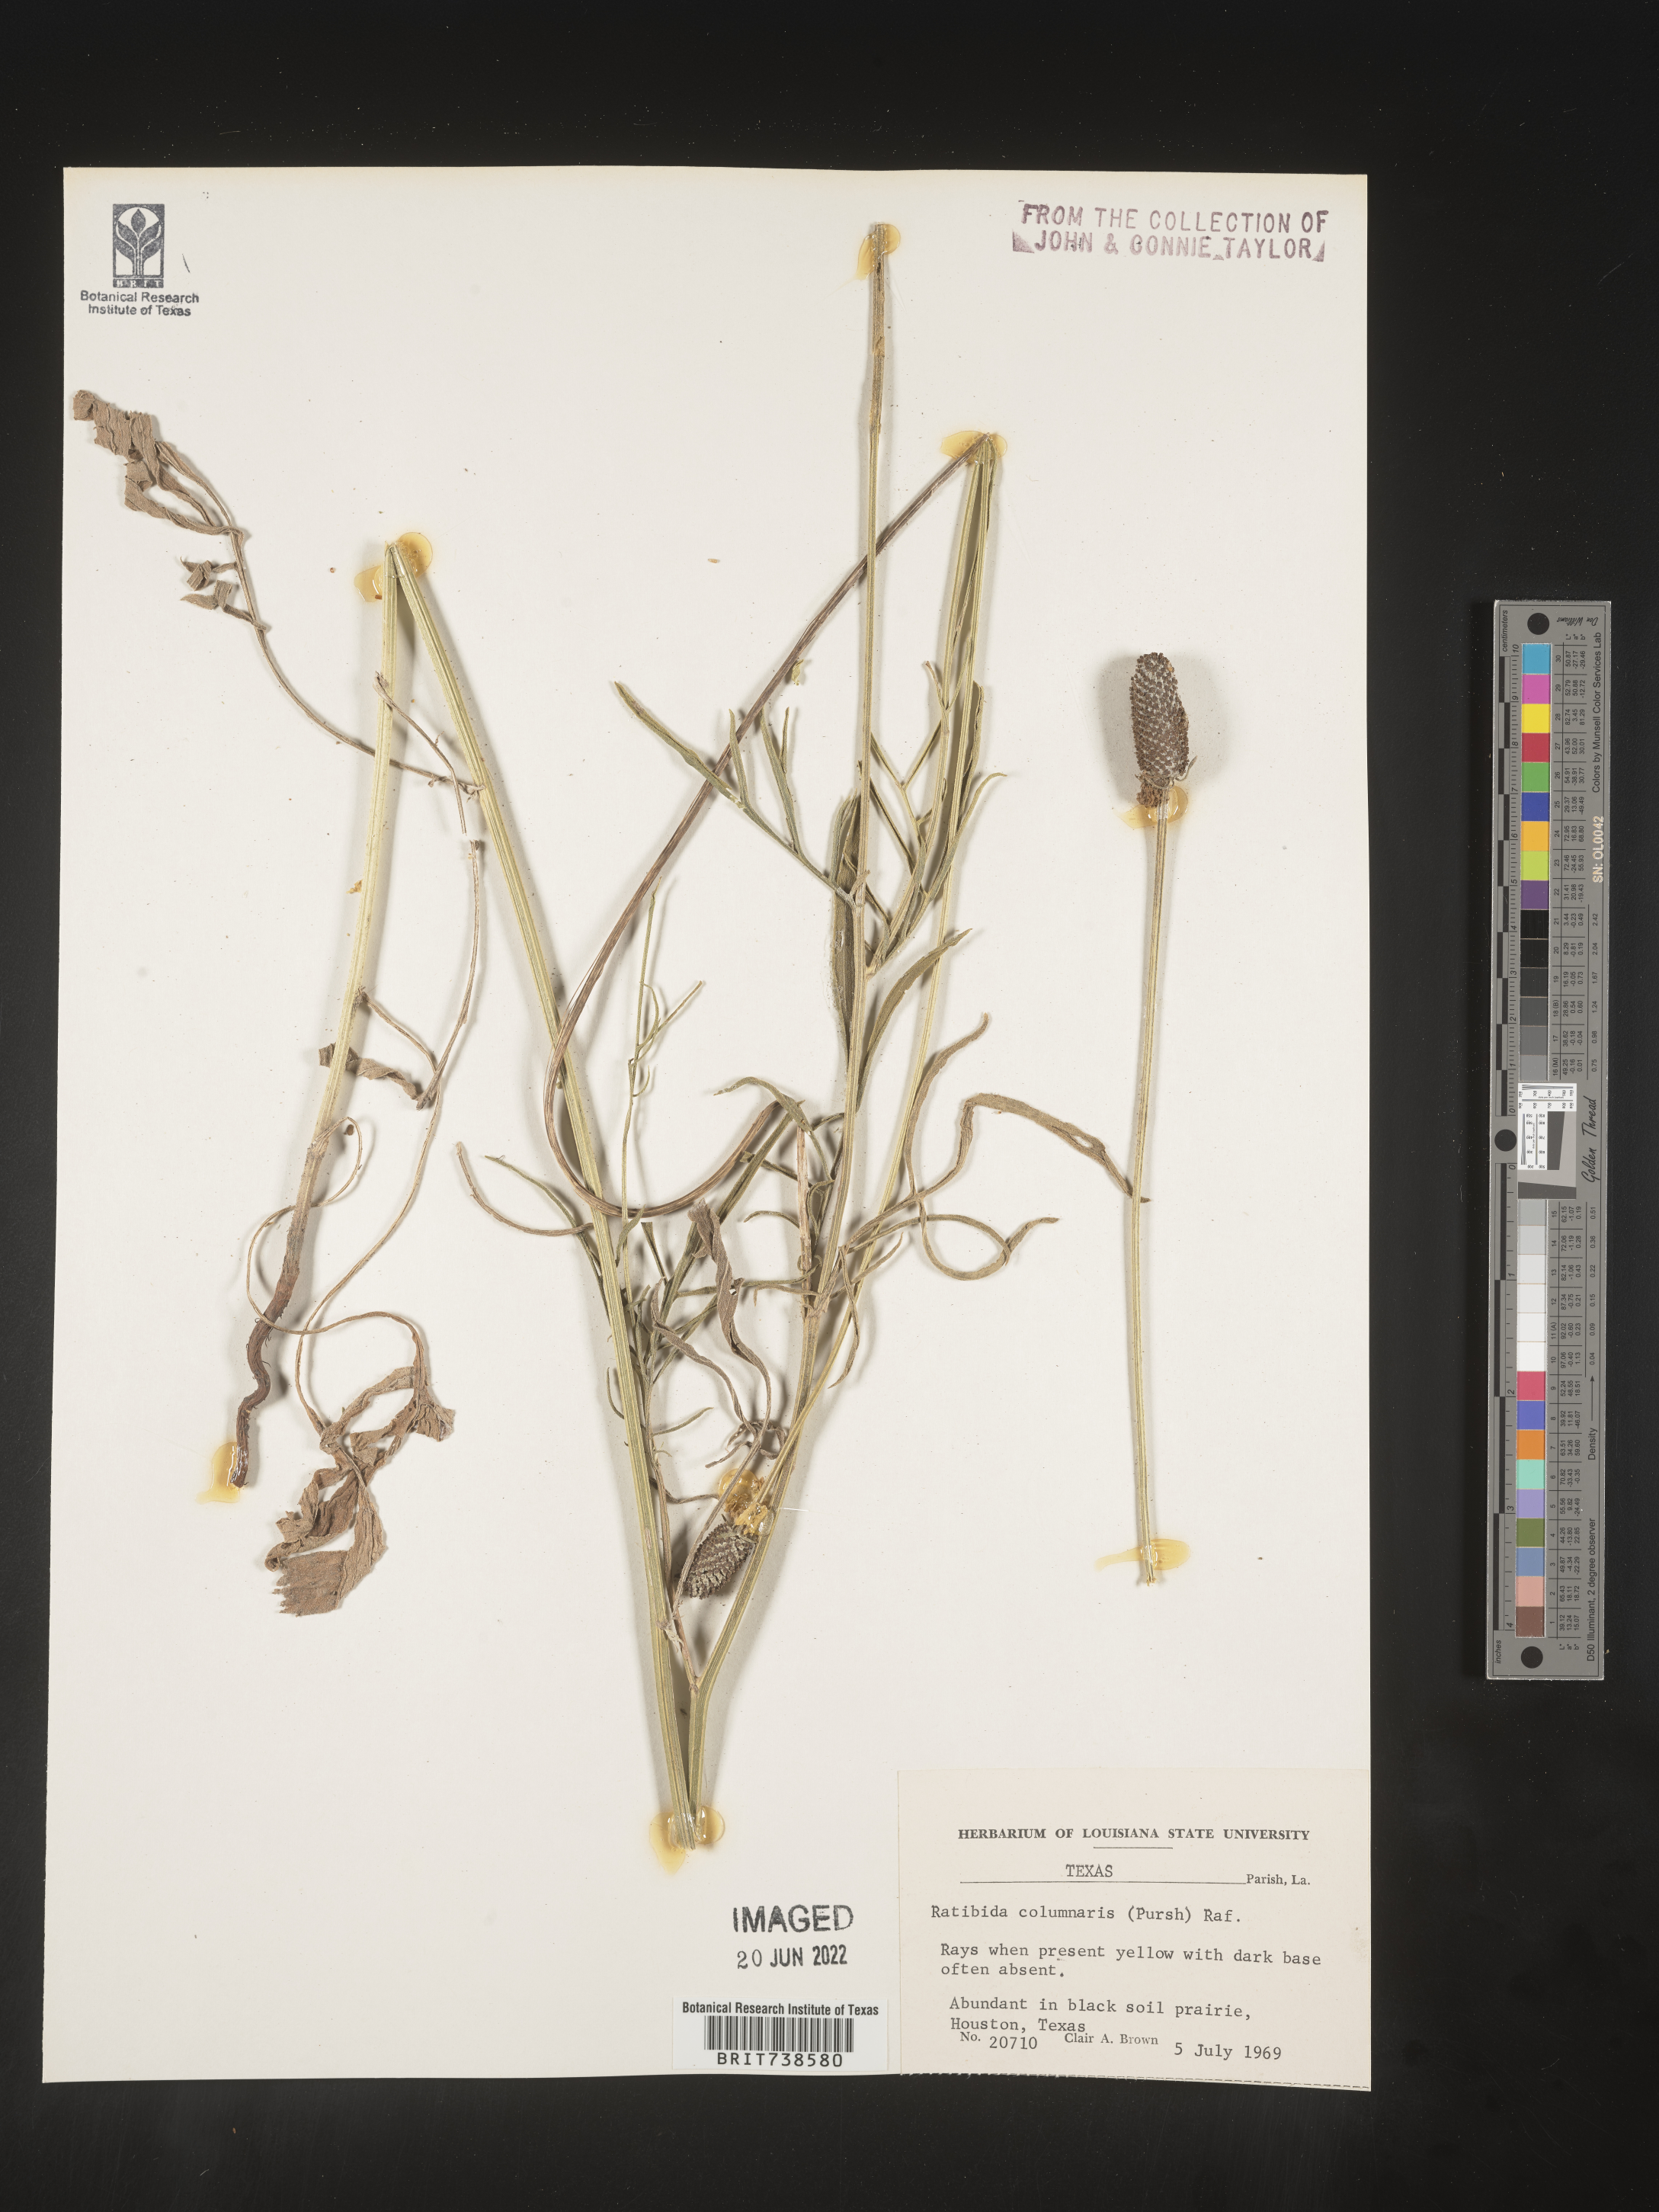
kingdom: Plantae
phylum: Tracheophyta
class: Magnoliopsida
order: Asterales
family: Asteraceae
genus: Ratibida
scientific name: Ratibida columnifera
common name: Prairie coneflower
